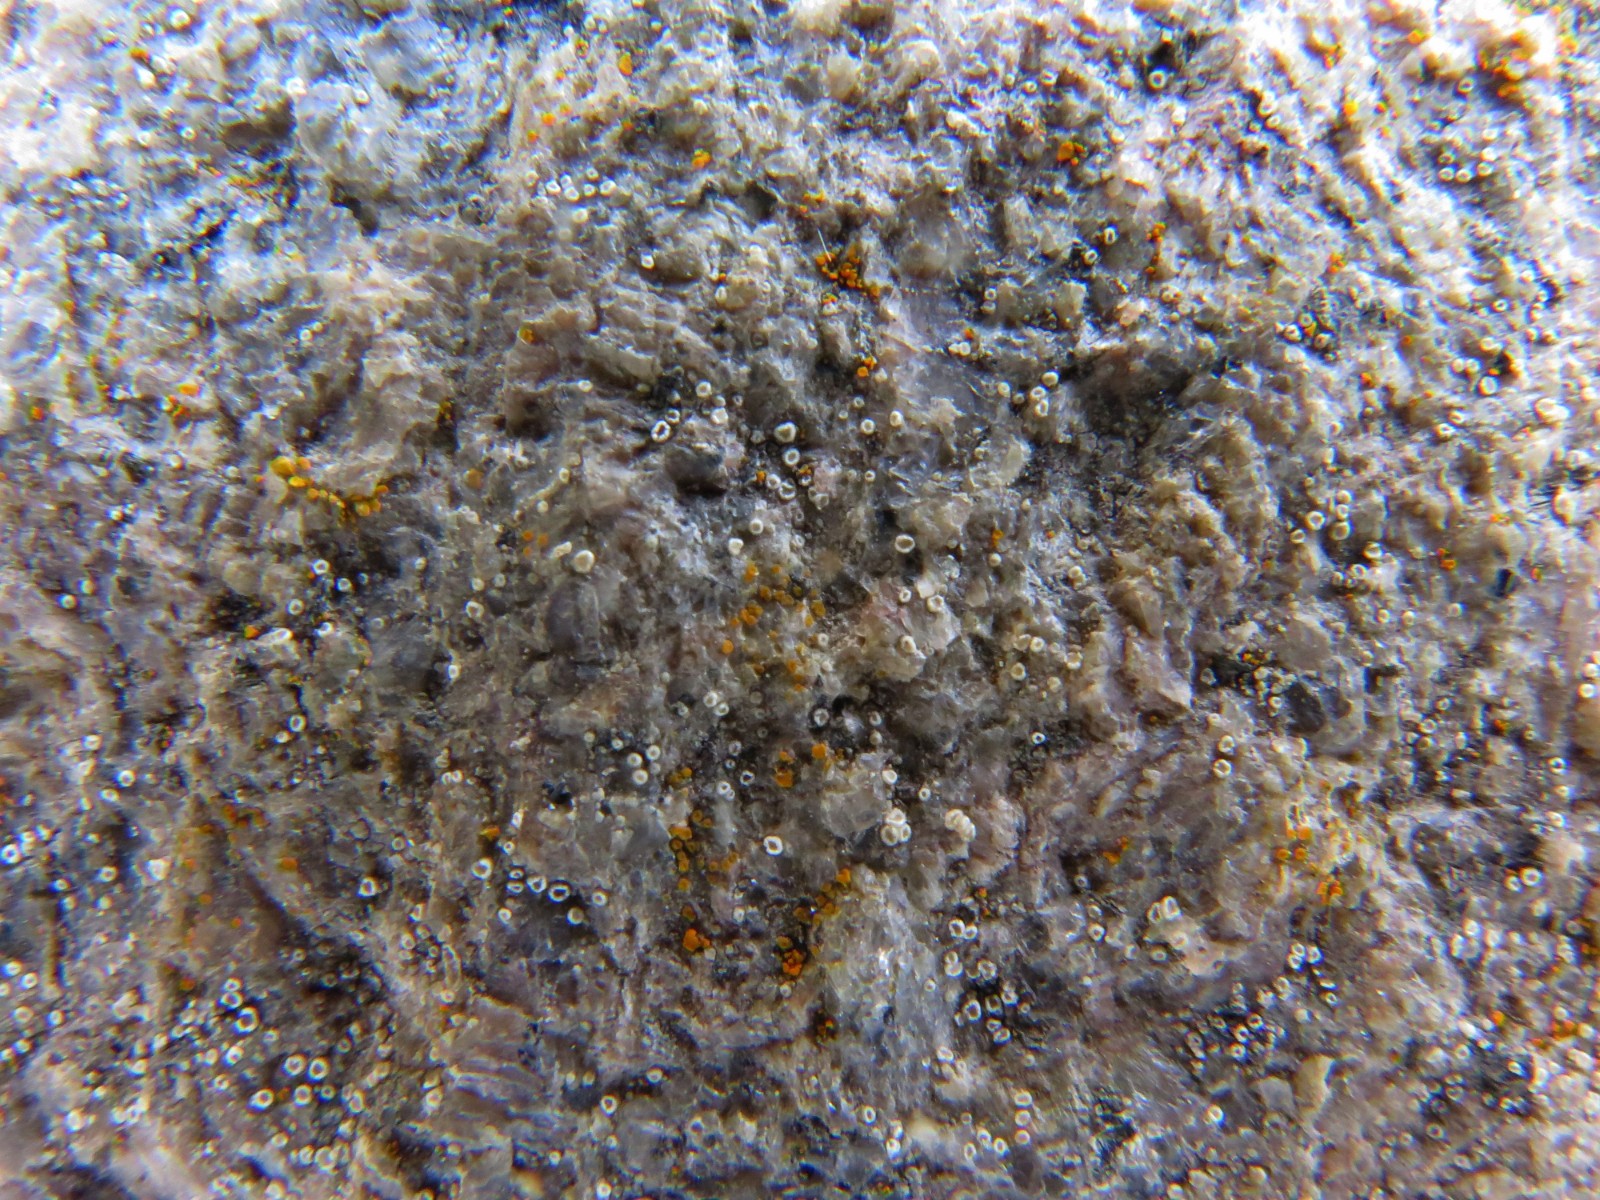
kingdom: Fungi
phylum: Ascomycota
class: Lecanoromycetes
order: Lecanorales
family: Lecanoraceae
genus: Polyozosia
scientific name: Polyozosia dispersa
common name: spredt kantskivelav
